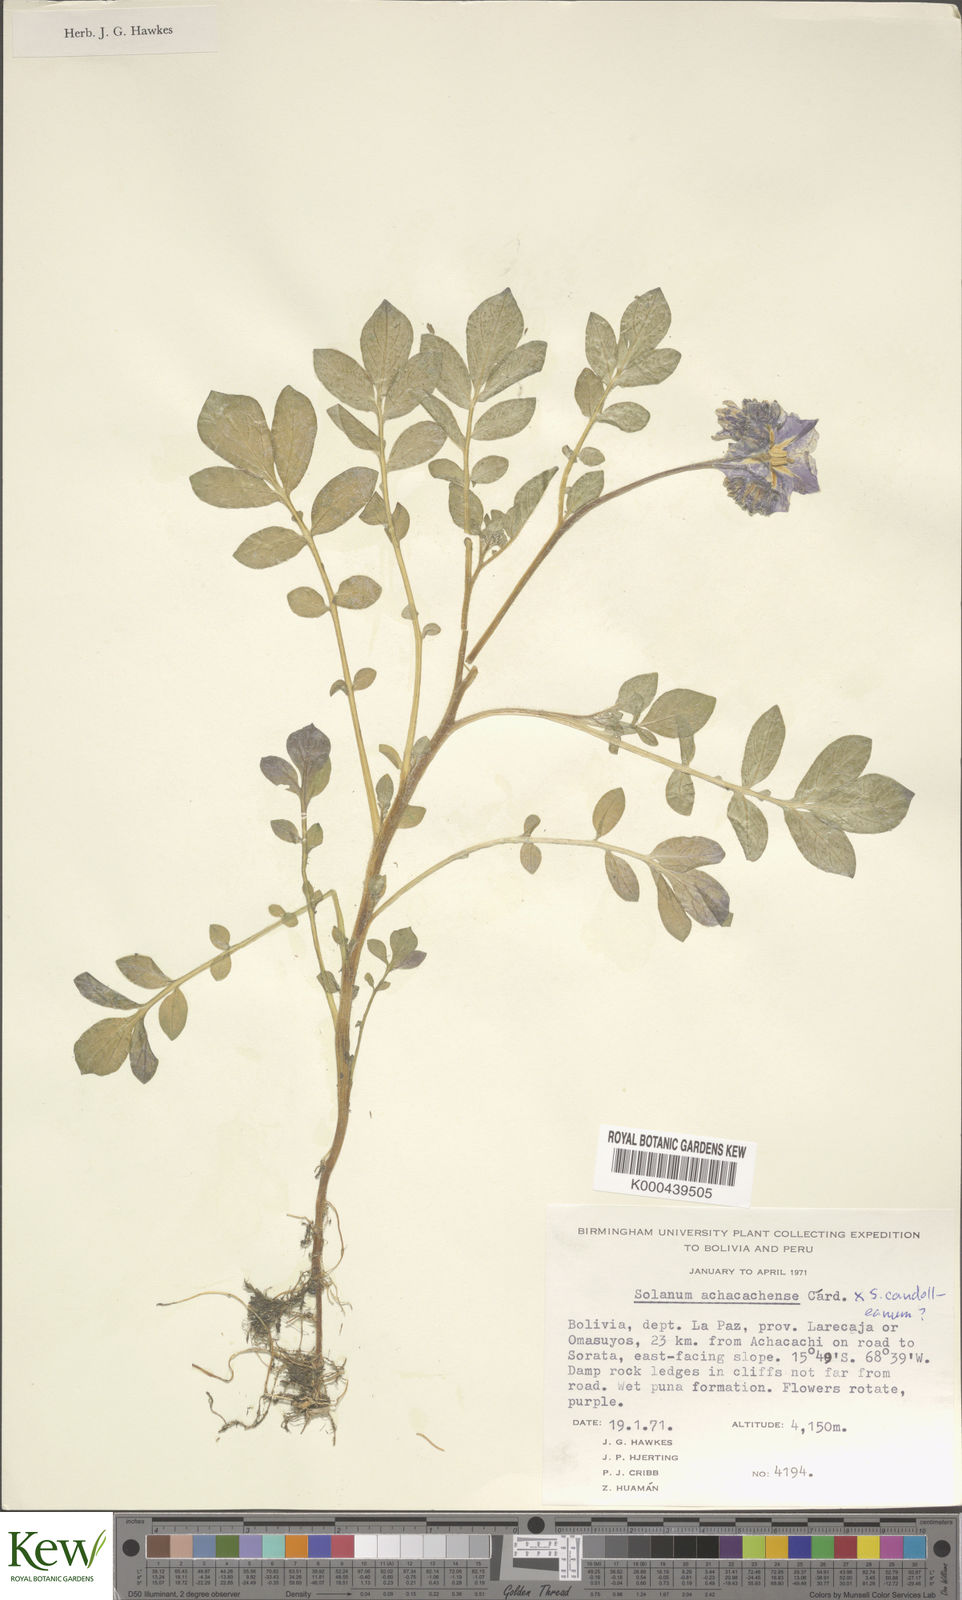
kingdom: Plantae
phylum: Tracheophyta
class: Magnoliopsida
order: Solanales
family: Solanaceae
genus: Solanum
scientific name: Solanum brevicaule
